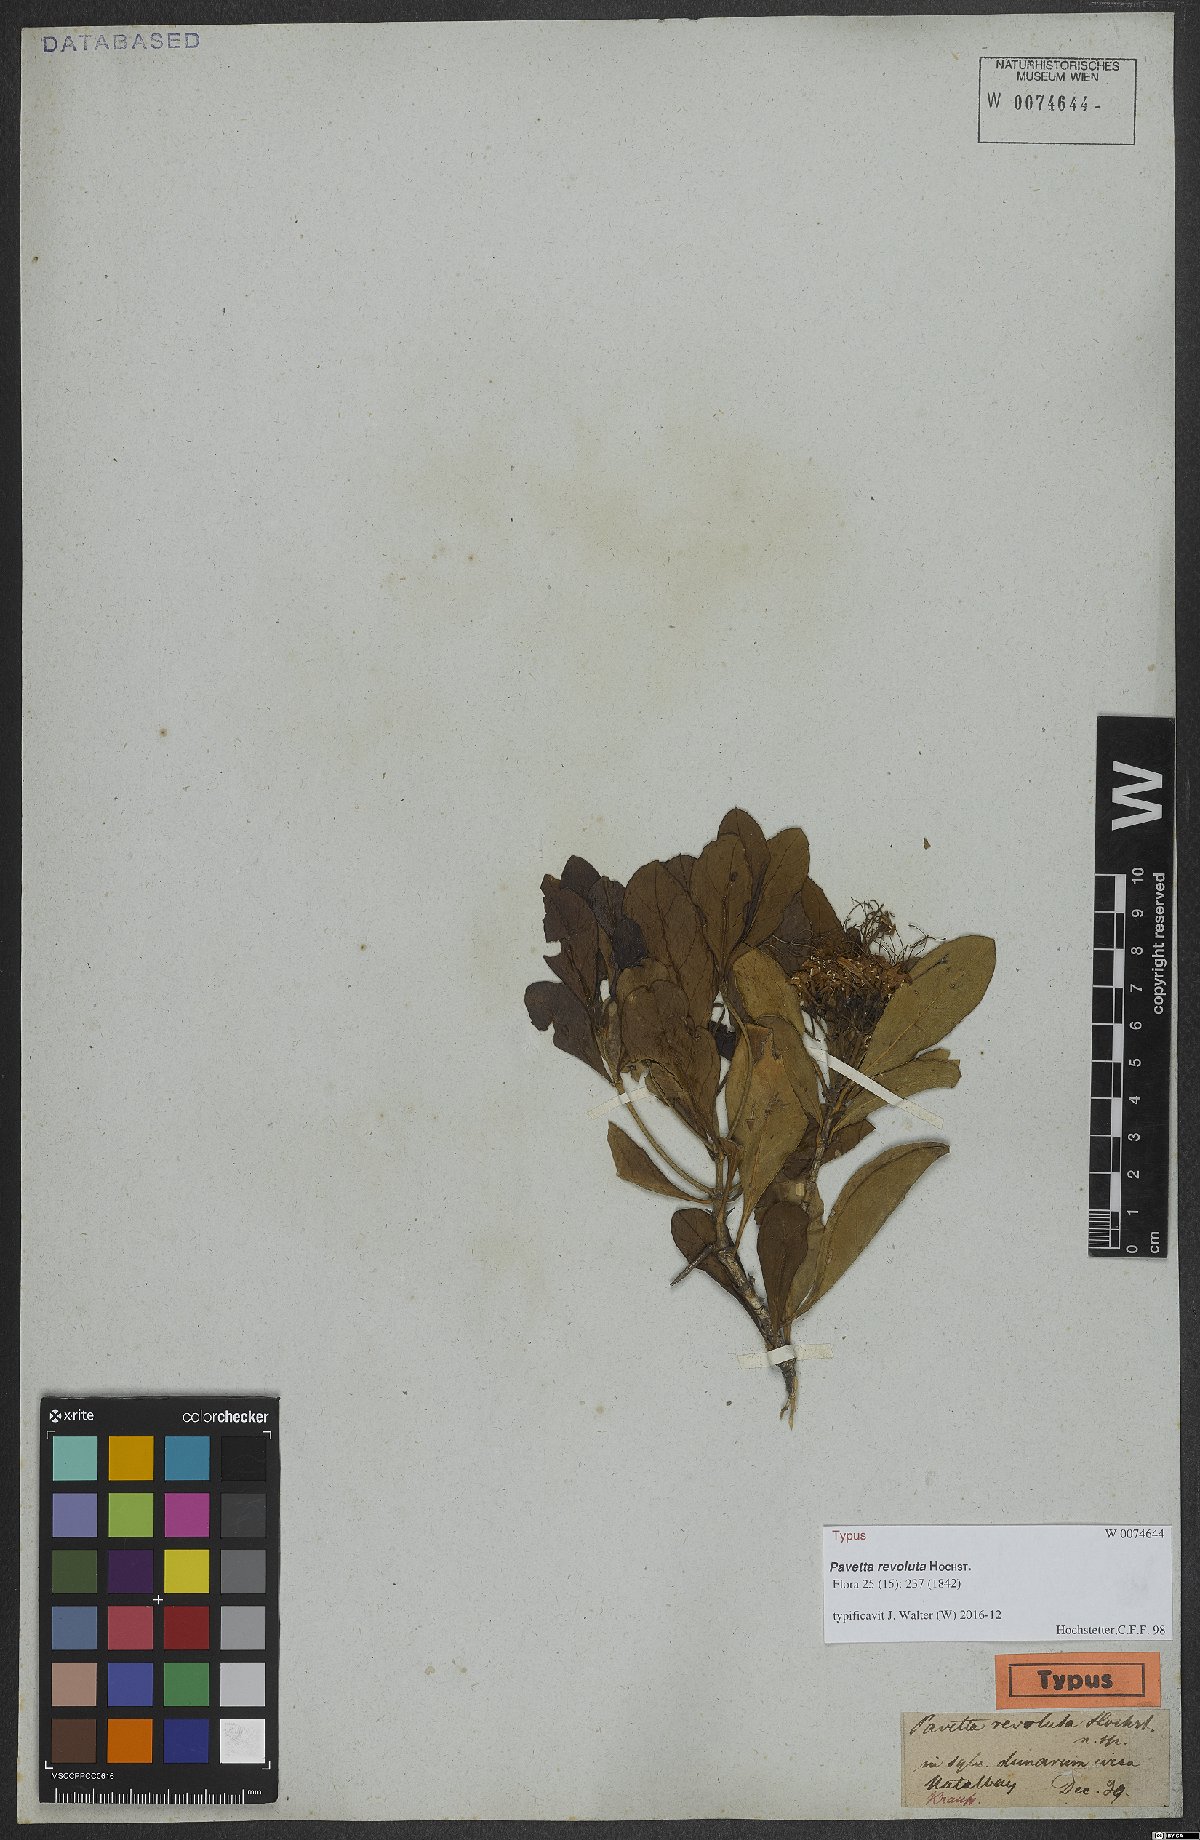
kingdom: Plantae
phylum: Tracheophyta
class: Magnoliopsida
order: Gentianales
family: Rubiaceae
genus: Pavetta
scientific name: Pavetta revoluta
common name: Dune brides-bush
